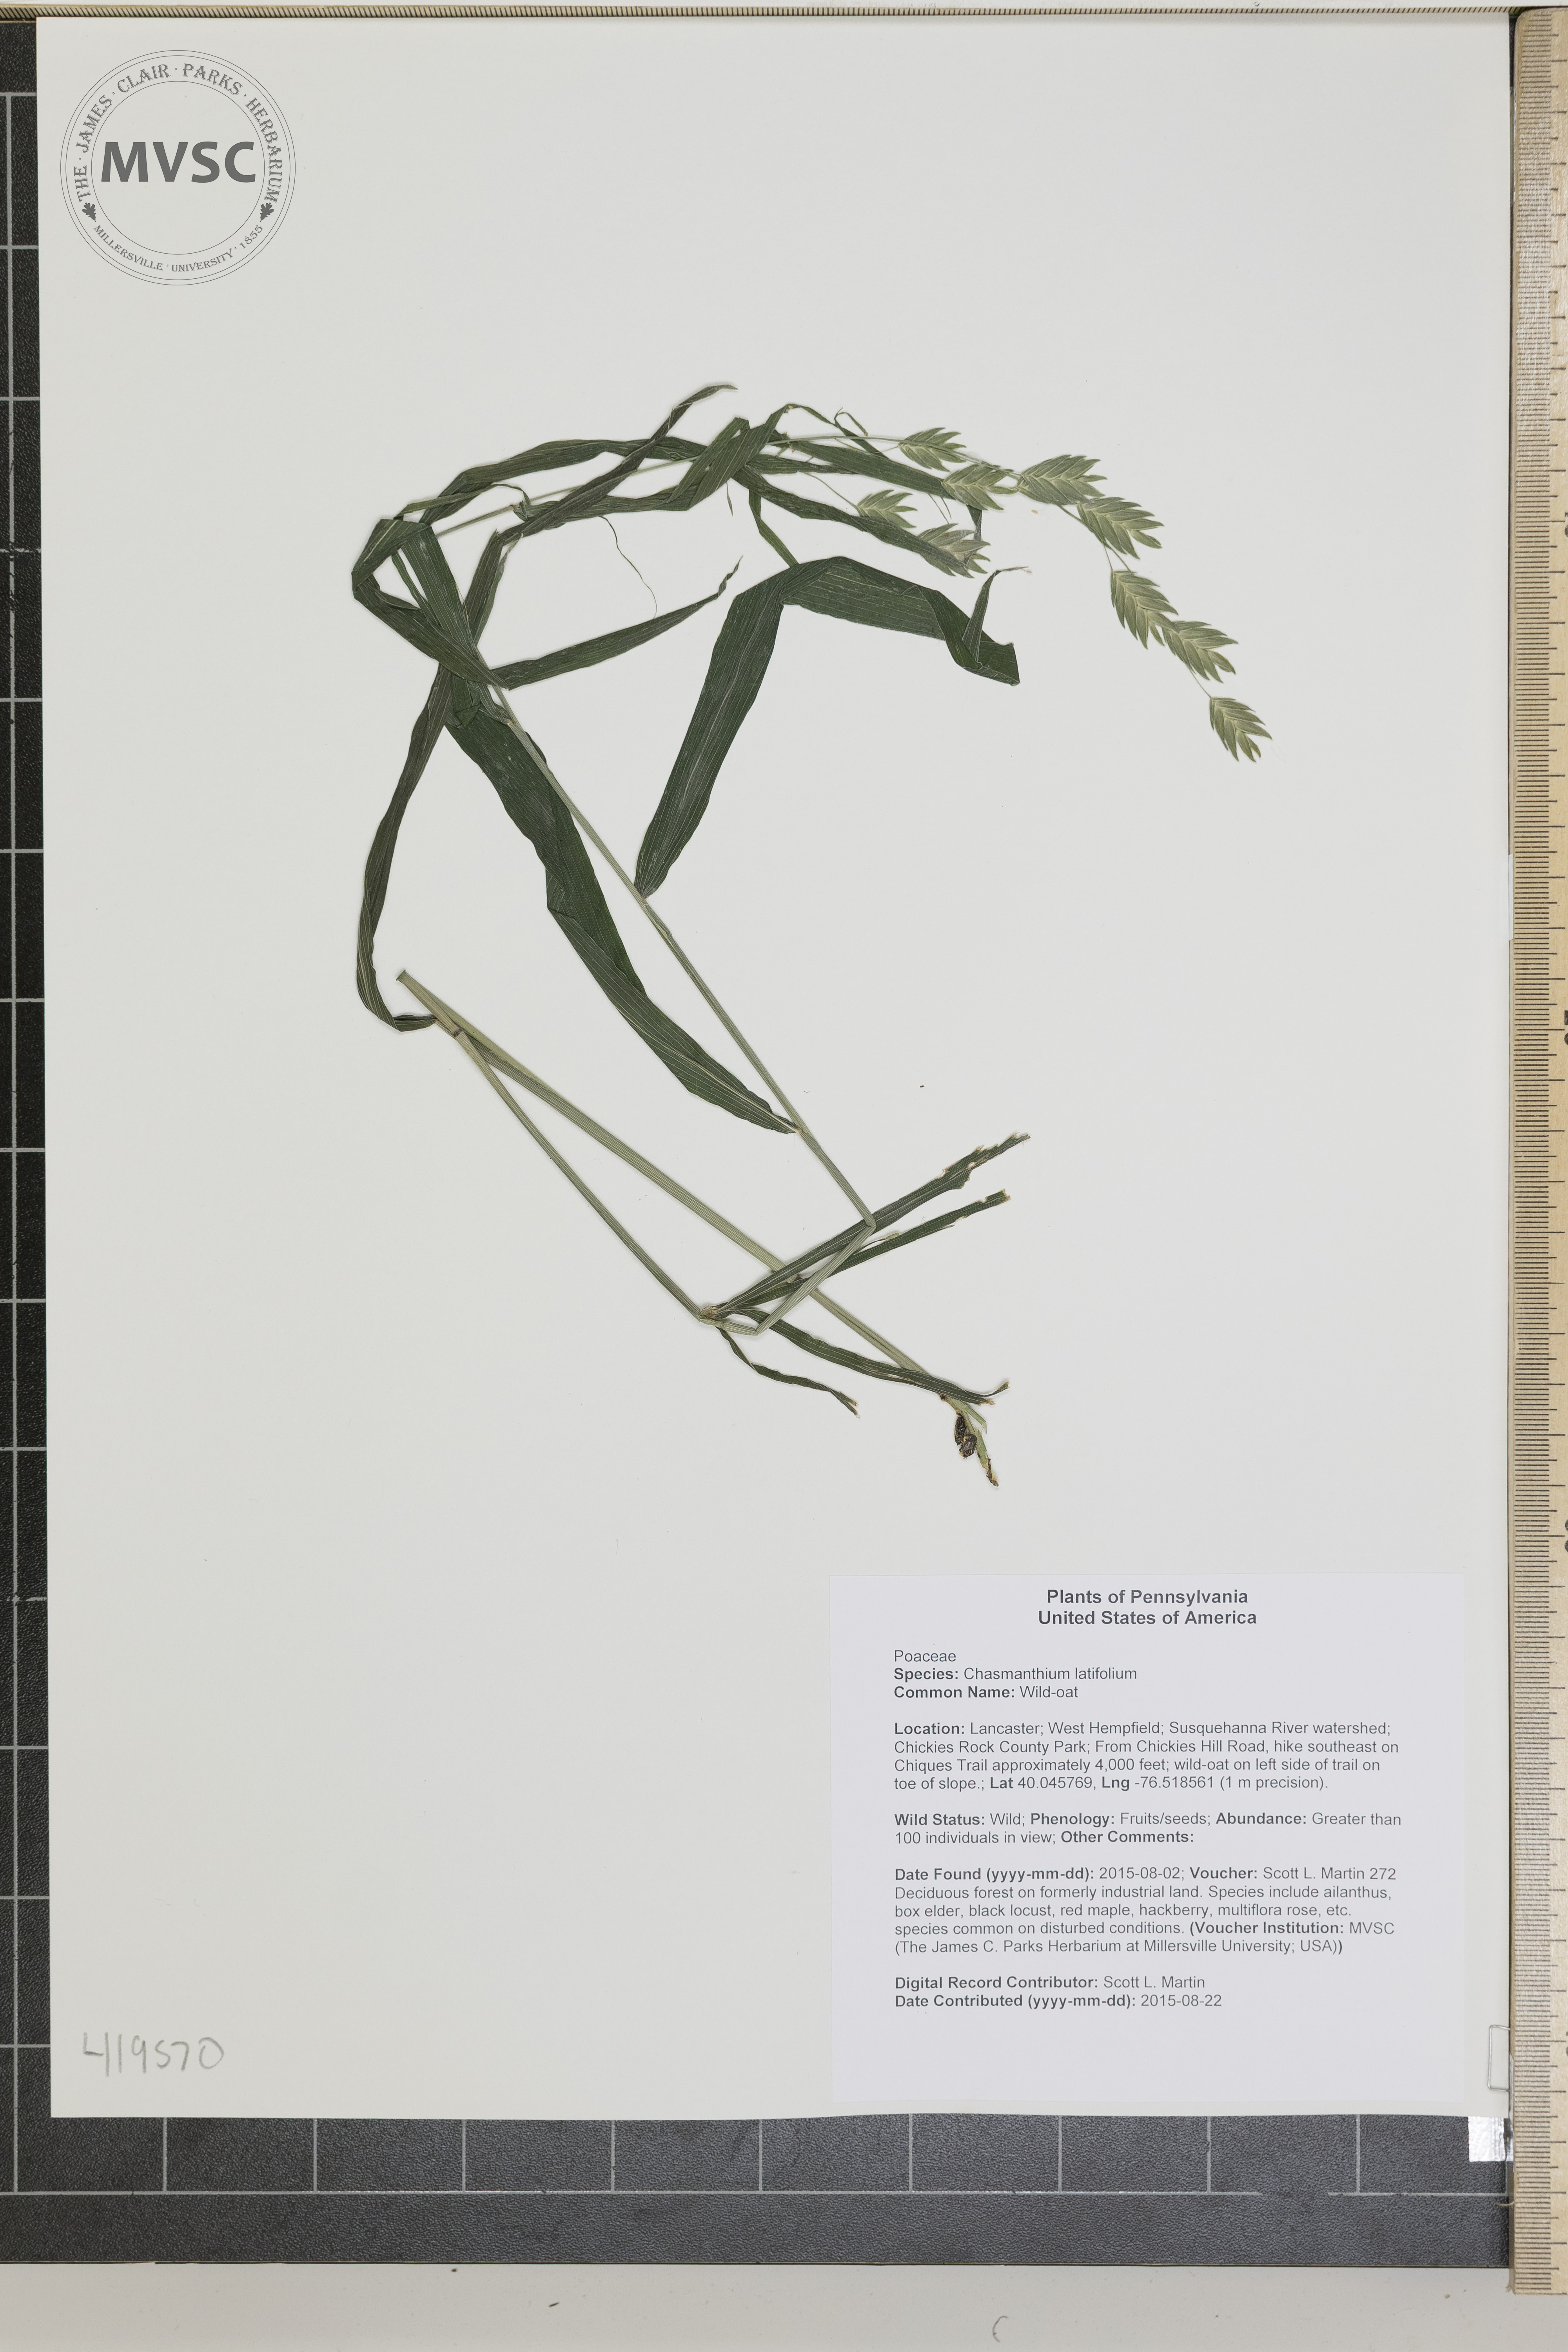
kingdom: Plantae
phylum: Tracheophyta
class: Liliopsida
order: Poales
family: Poaceae
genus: Chasmanthium
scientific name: Chasmanthium latifolium
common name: Wild-oat
